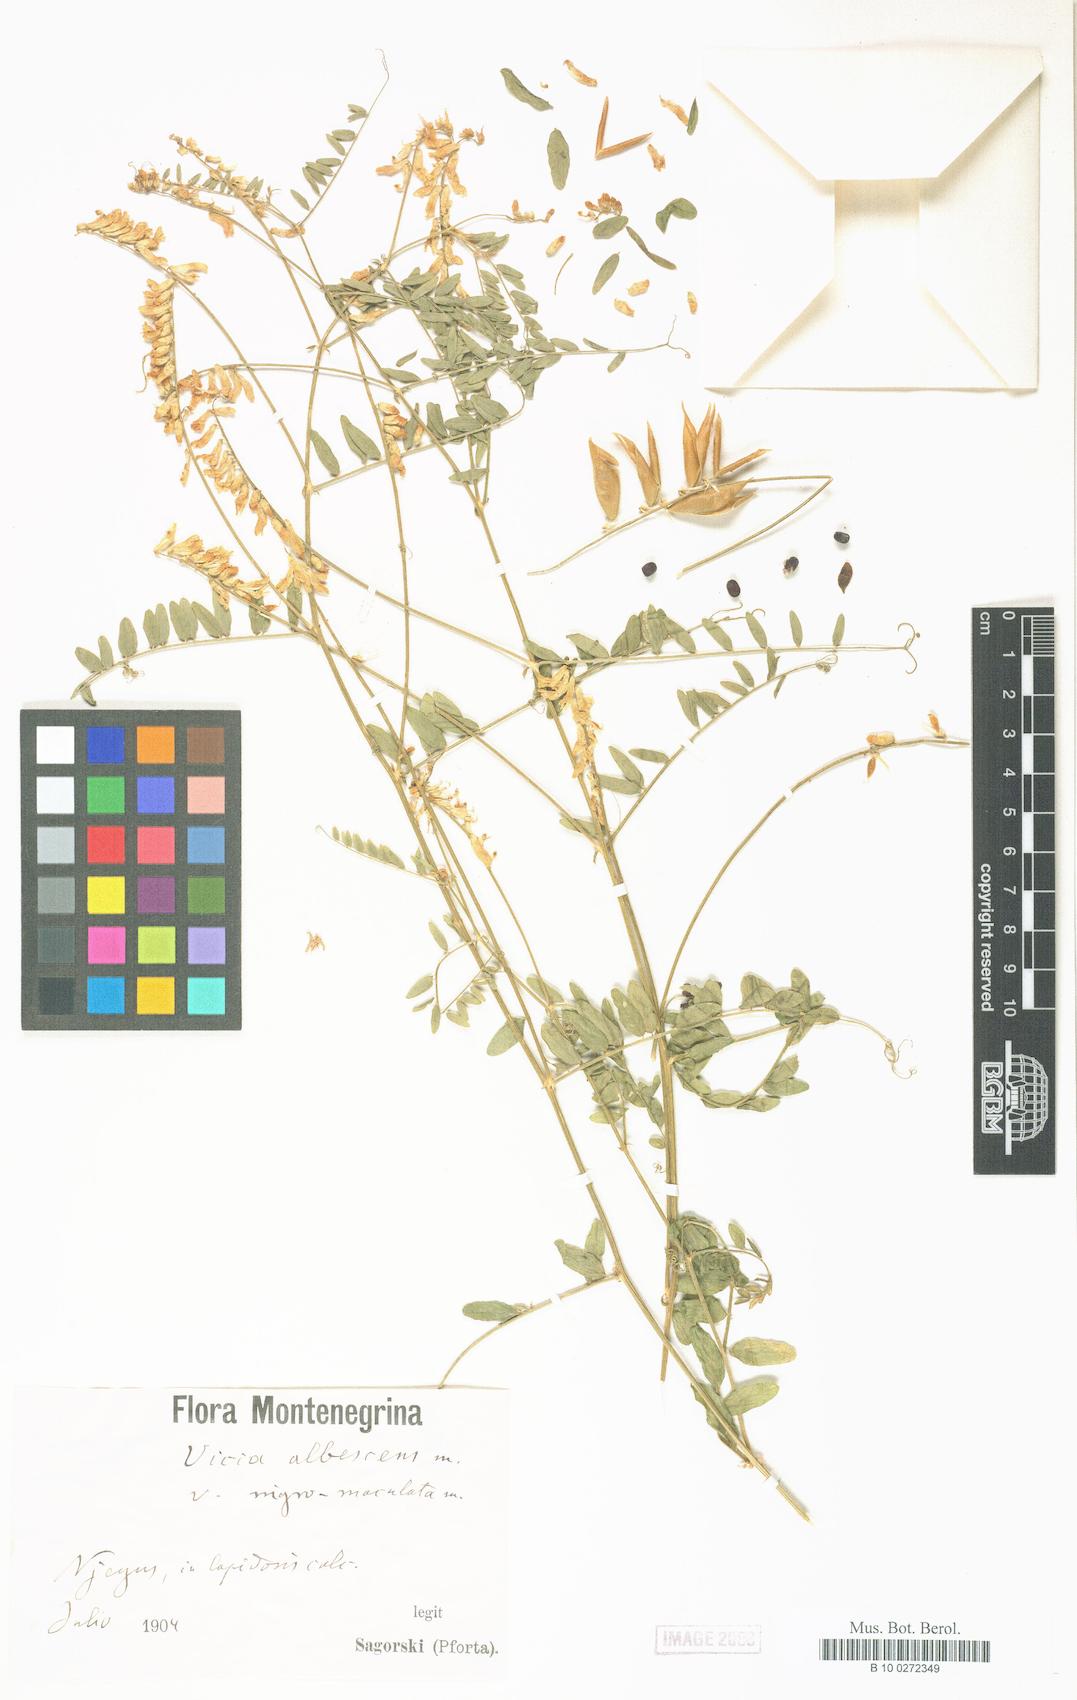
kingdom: Plantae
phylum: Tracheophyta
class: Magnoliopsida
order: Fabales
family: Fabaceae
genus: Vicia
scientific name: Vicia ochroleuca
